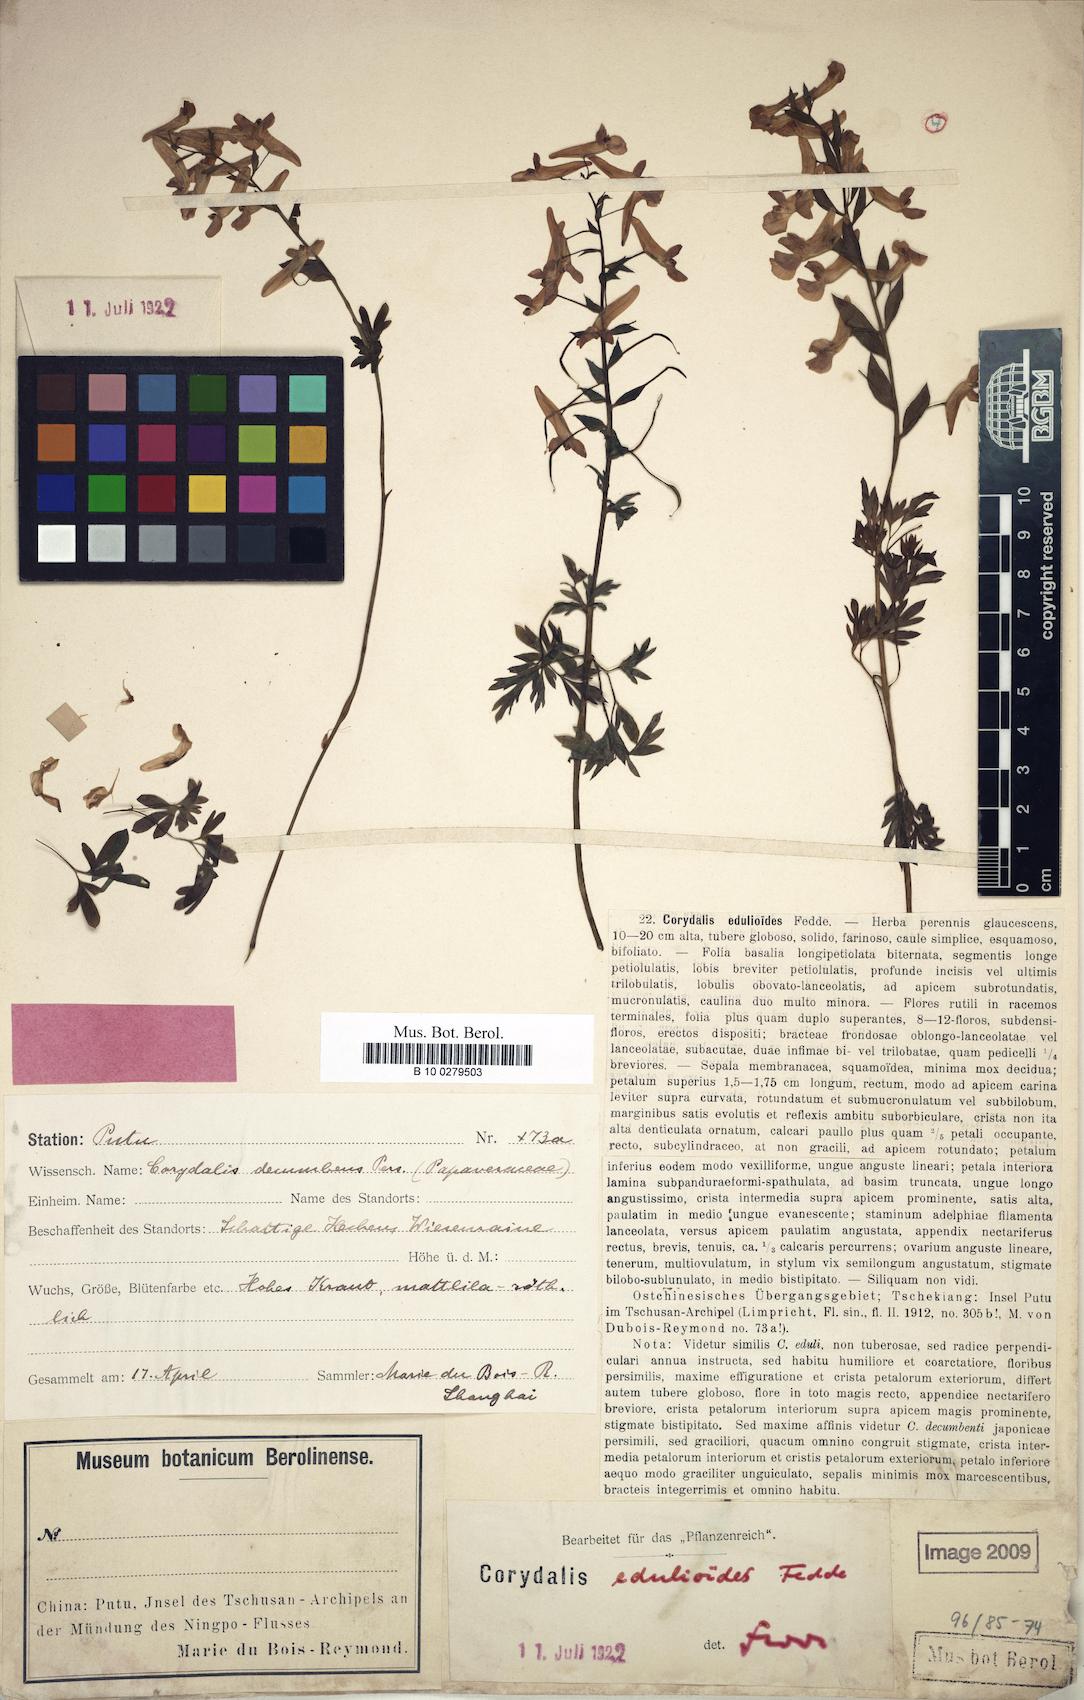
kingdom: Plantae
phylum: Tracheophyta
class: Magnoliopsida
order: Ranunculales
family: Papaveraceae
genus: Corydalis
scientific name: Corydalis decumbens
